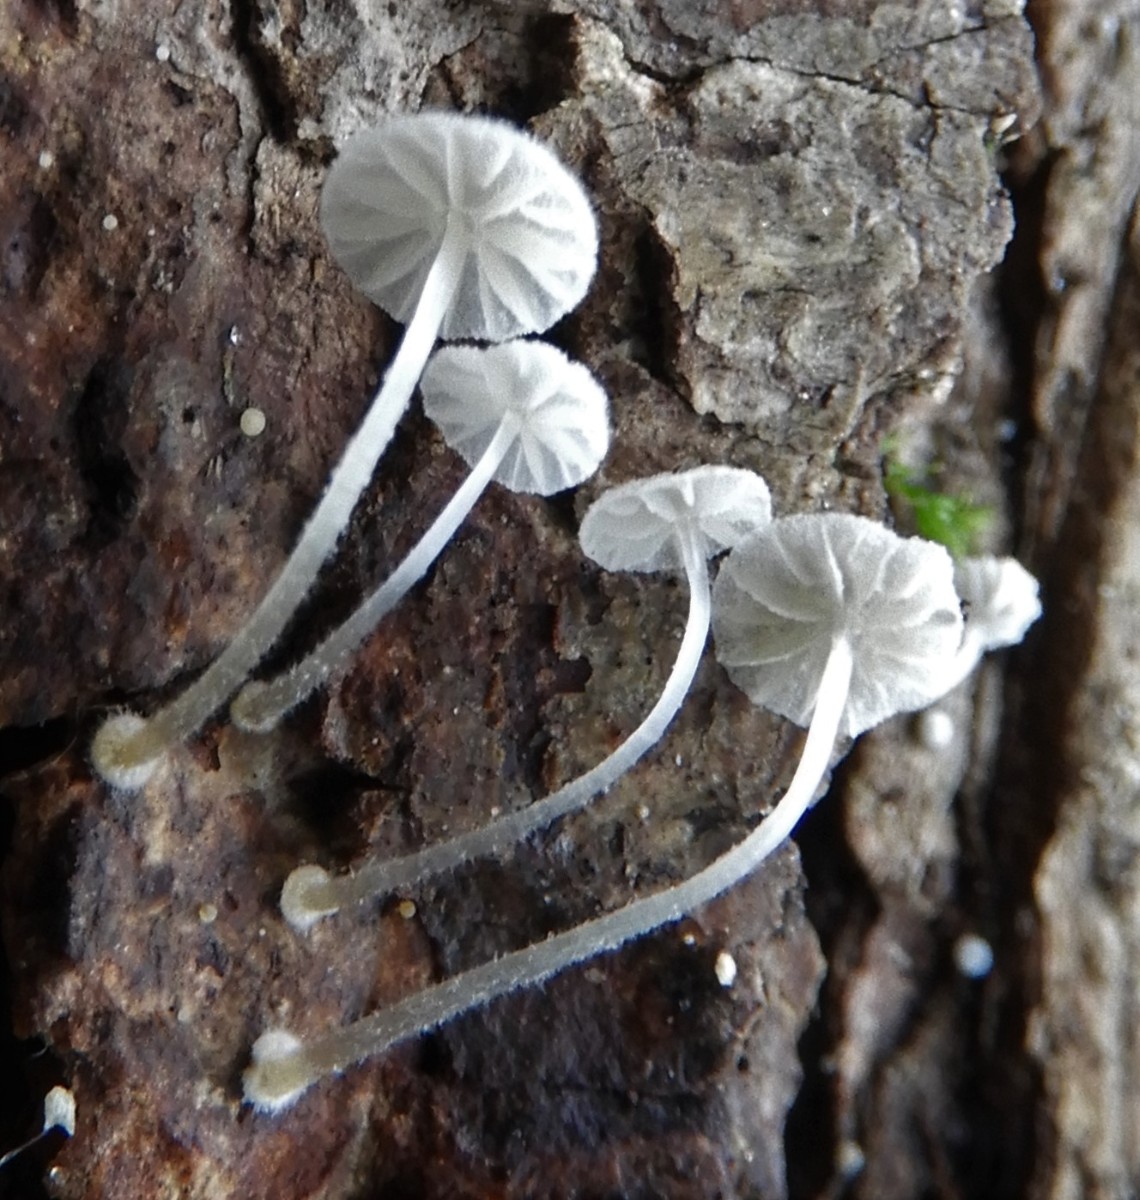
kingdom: Fungi
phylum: Basidiomycota
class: Agaricomycetes
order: Agaricales
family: Mycenaceae
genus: Mycena
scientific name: Mycena clavularis
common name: dunskivet huesvamp
